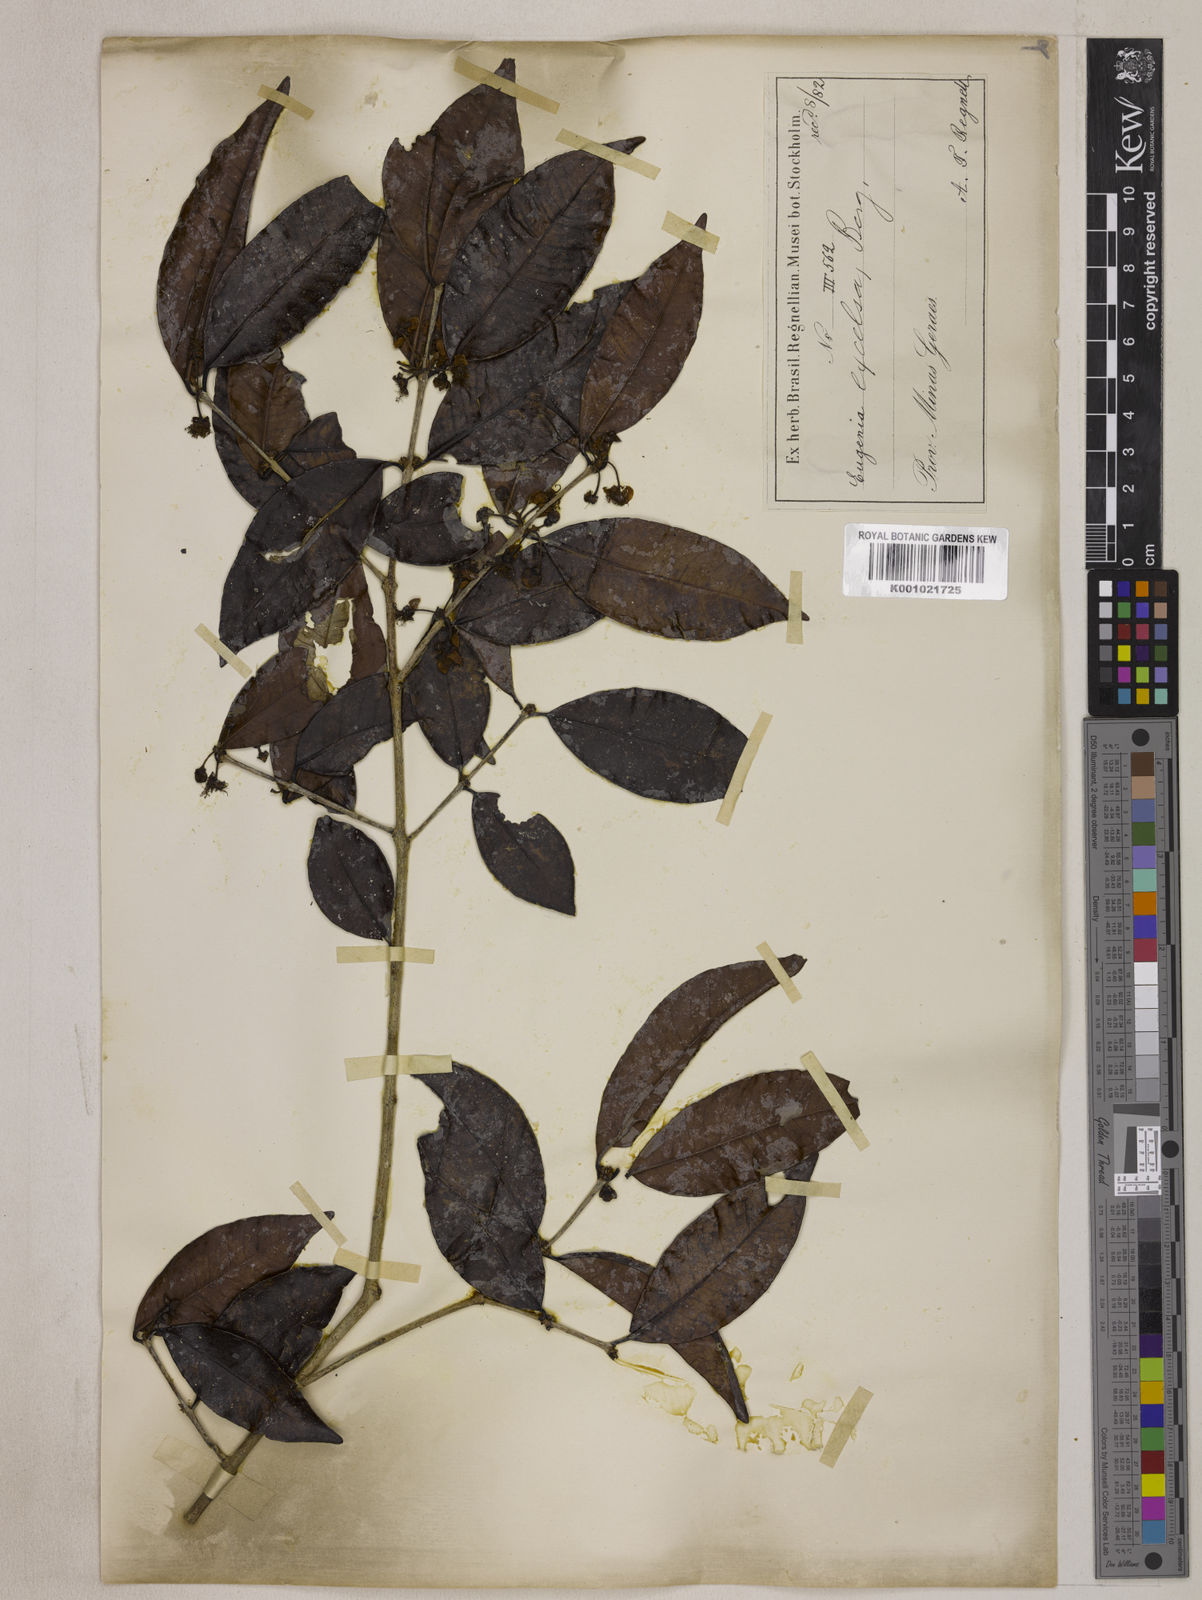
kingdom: Plantae
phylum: Tracheophyta
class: Magnoliopsida
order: Myrtales
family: Myrtaceae
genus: Eugenia
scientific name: Eugenia excelsa
